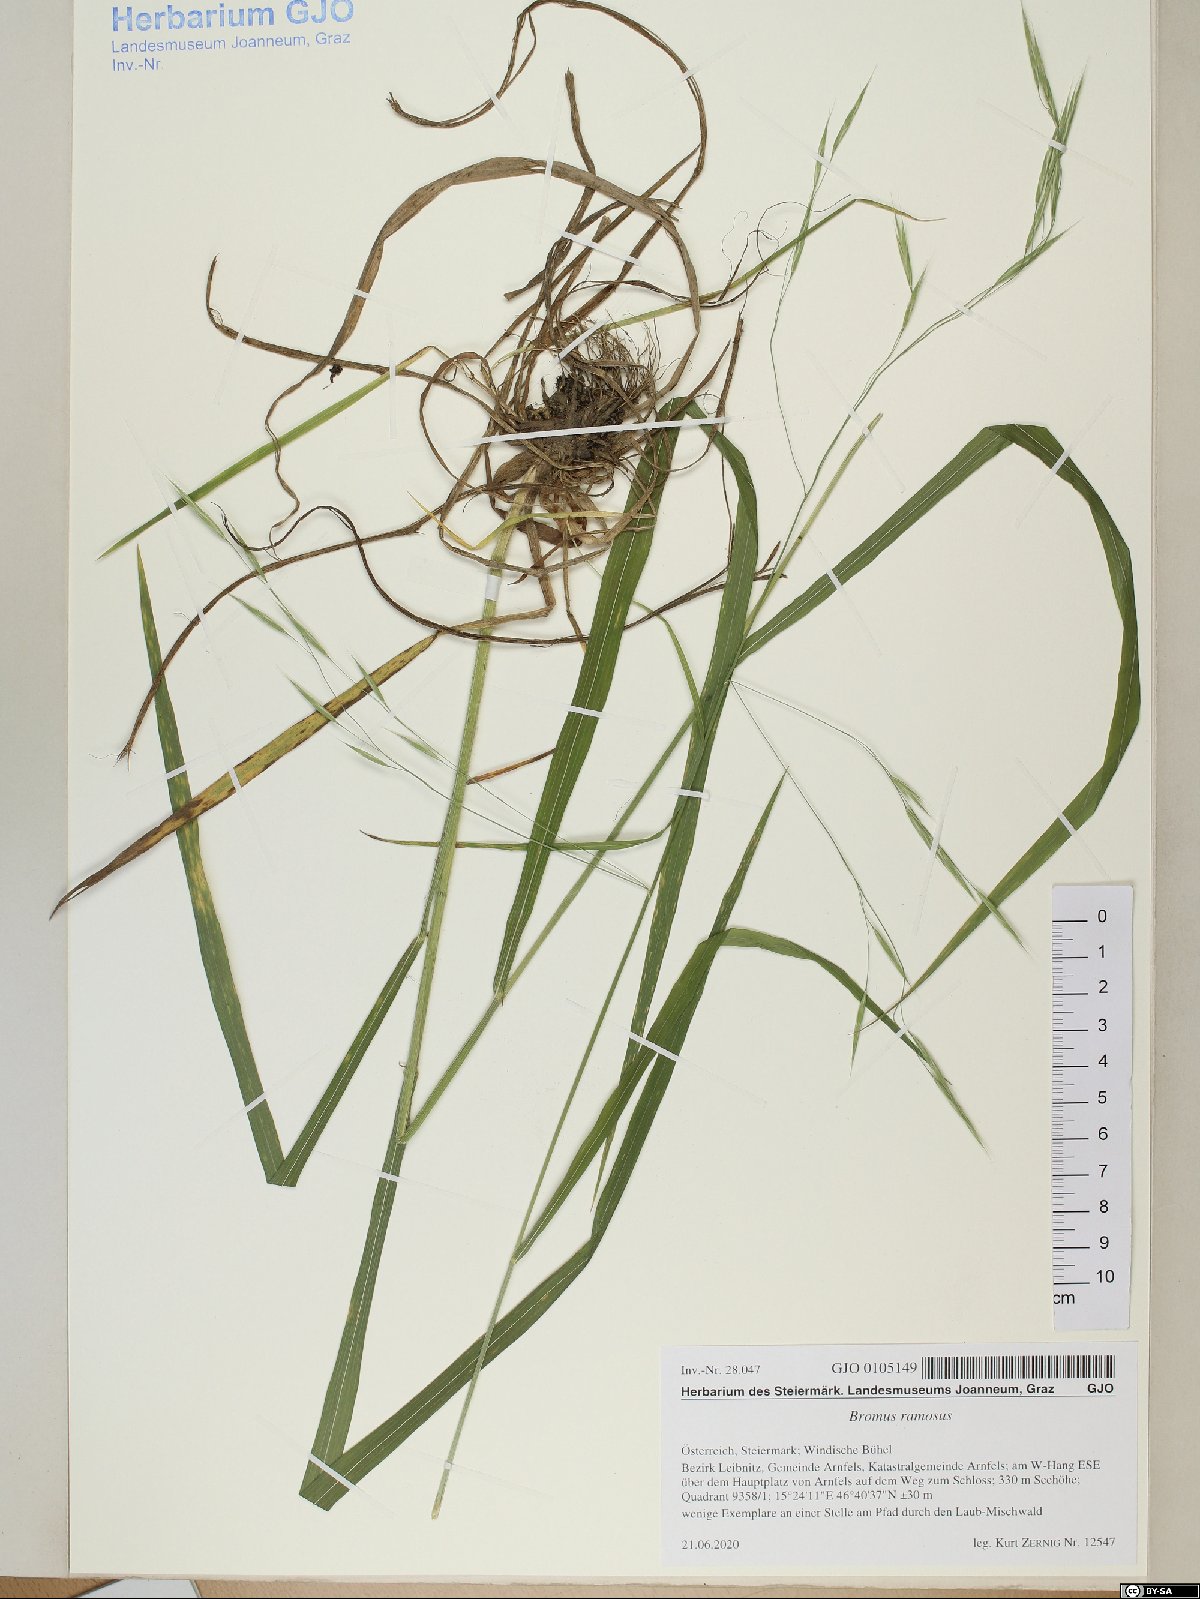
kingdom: Plantae
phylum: Tracheophyta
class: Liliopsida
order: Poales
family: Poaceae
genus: Bromus
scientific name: Bromus ramosus
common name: Hairy brome
